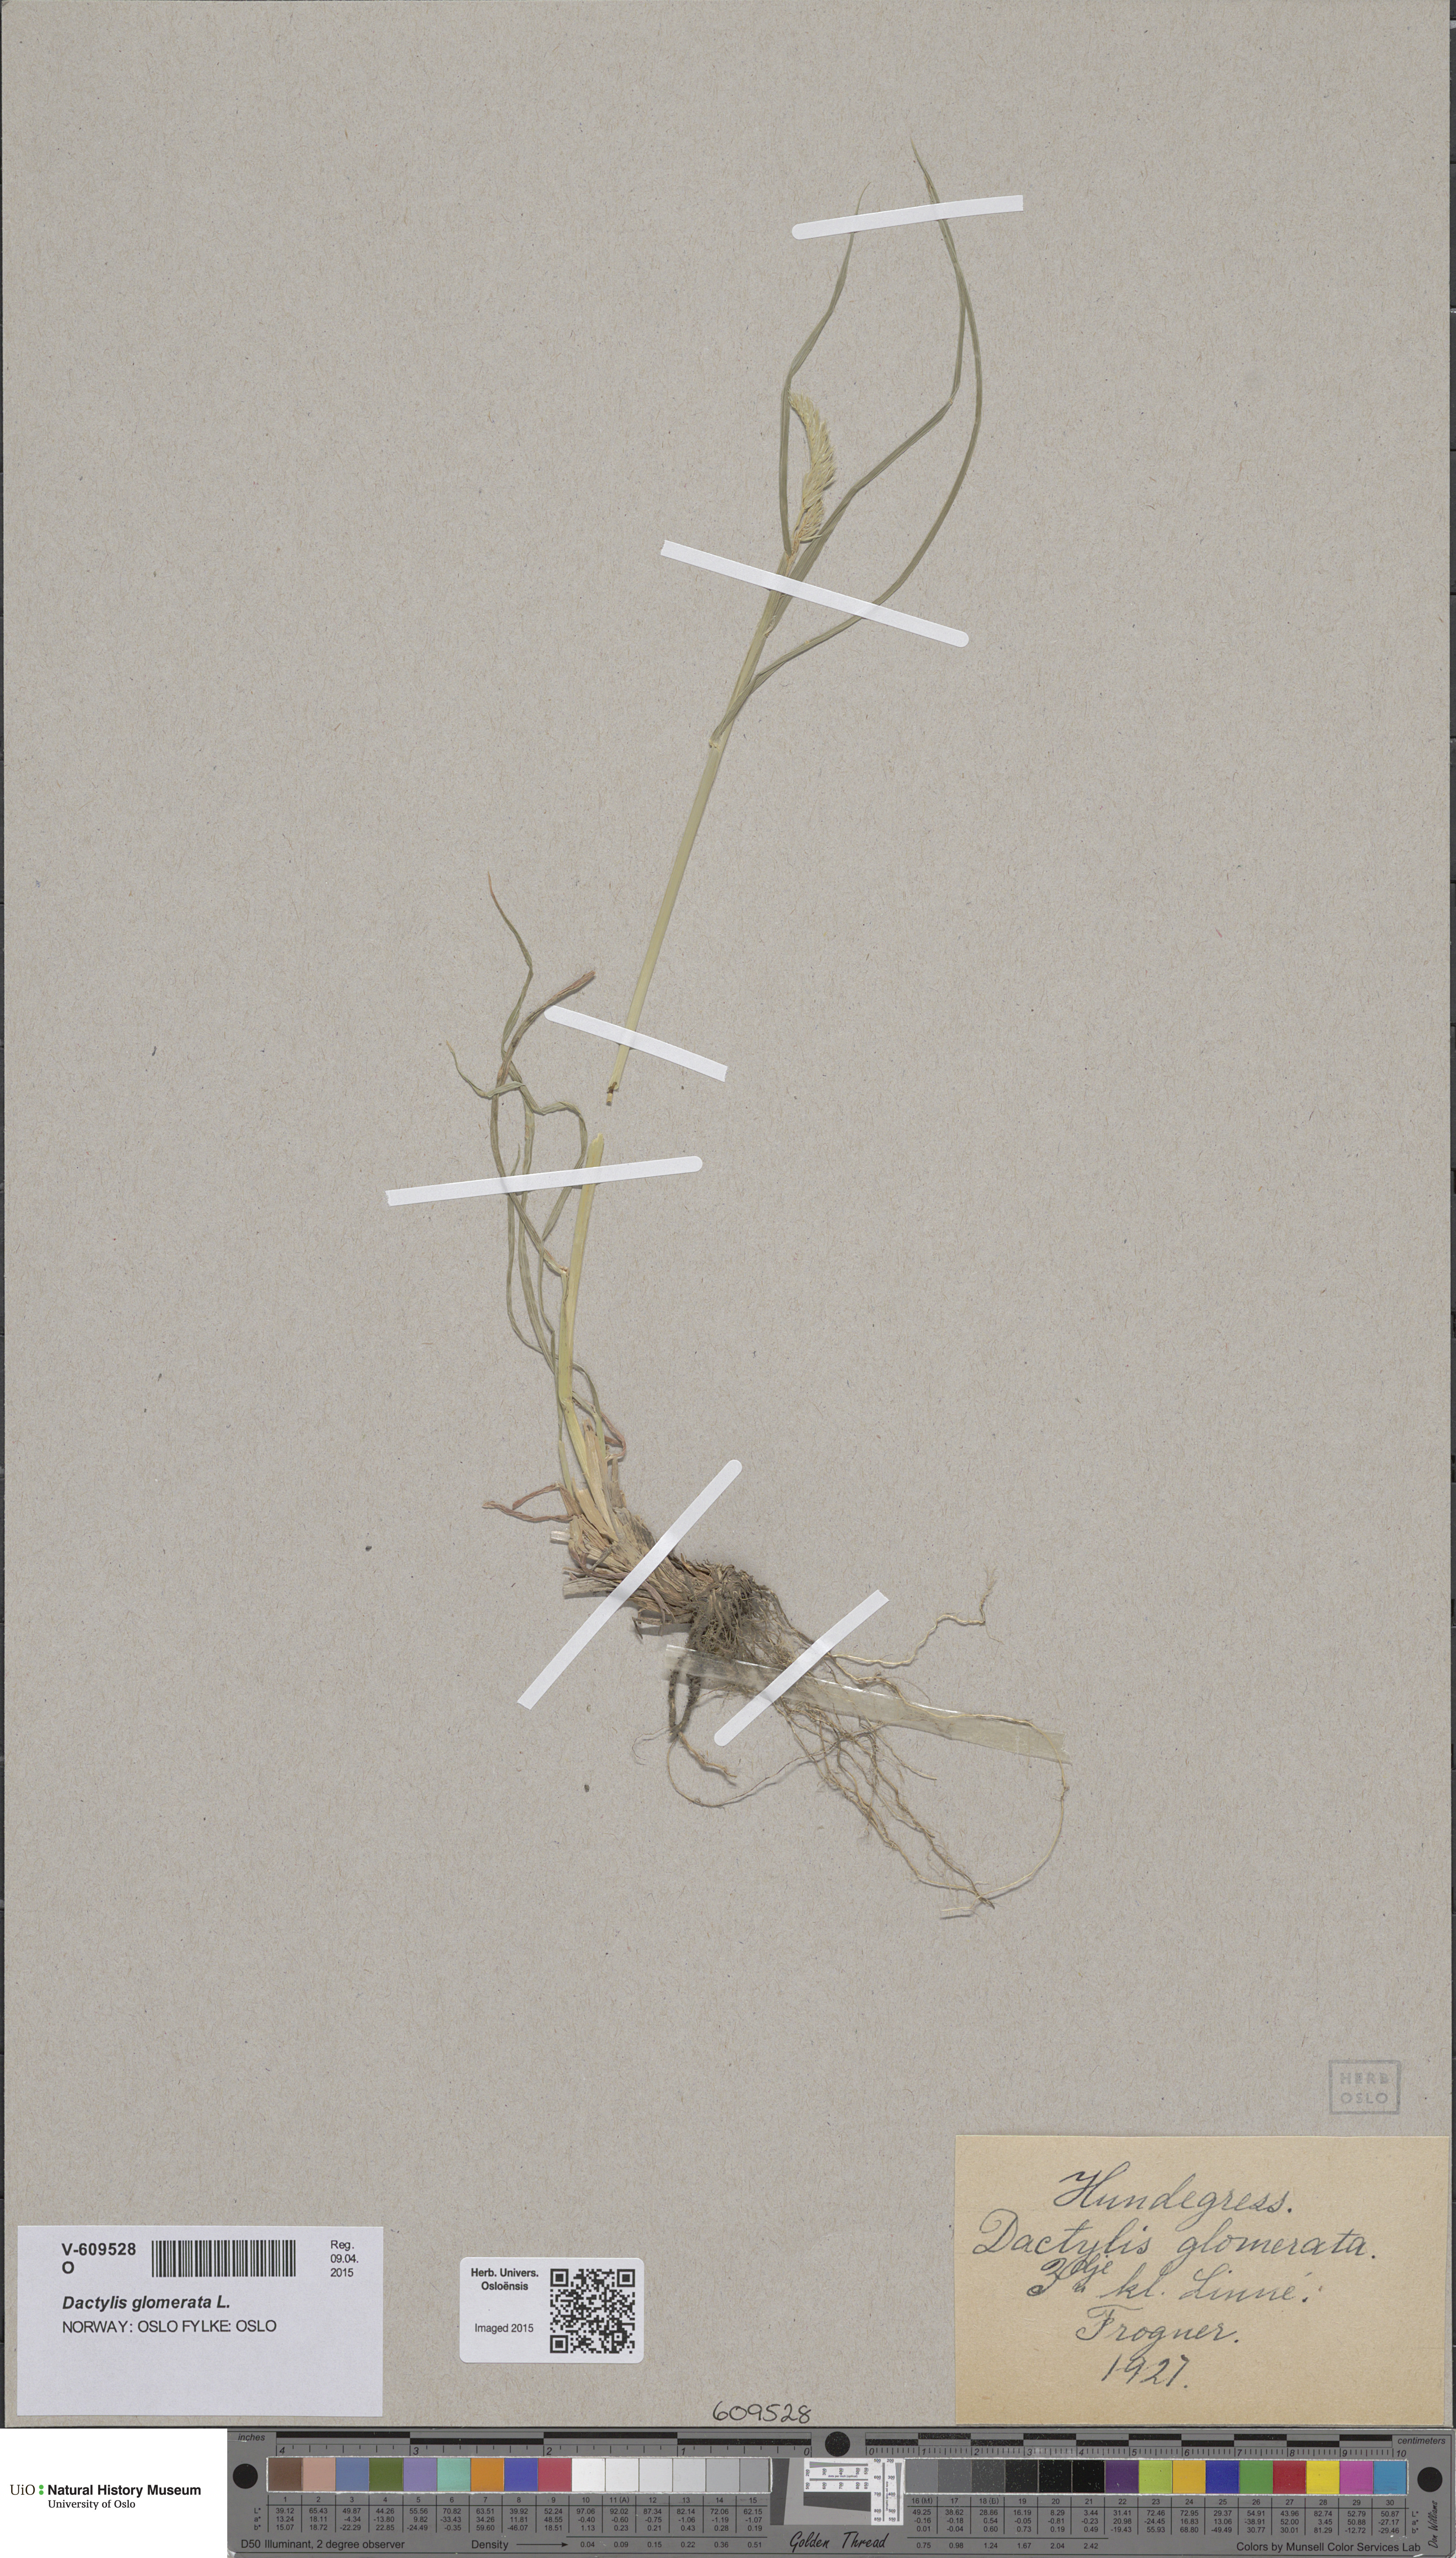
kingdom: Plantae
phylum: Tracheophyta
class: Liliopsida
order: Poales
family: Poaceae
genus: Dactylis
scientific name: Dactylis glomerata
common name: Orchardgrass
